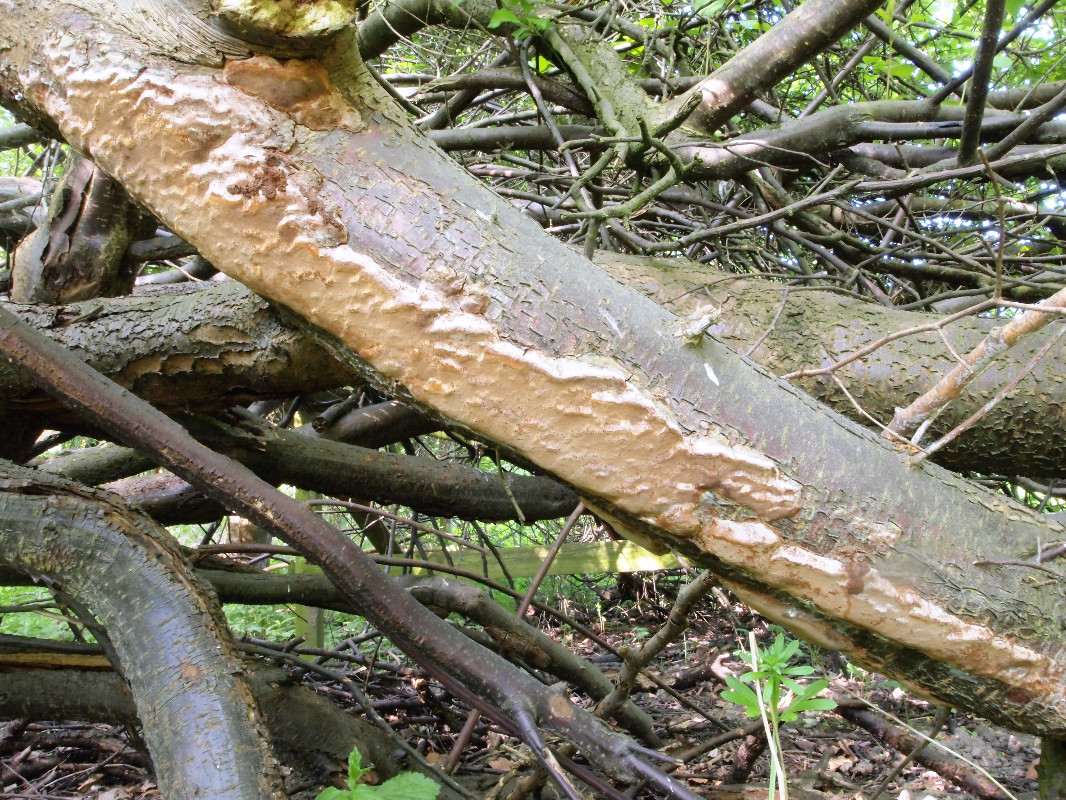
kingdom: Fungi
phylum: Basidiomycota
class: Agaricomycetes
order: Hymenochaetales
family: Hymenochaetaceae
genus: Phellinus
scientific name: Phellinus pomaceus
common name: blomme-ildporesvamp
